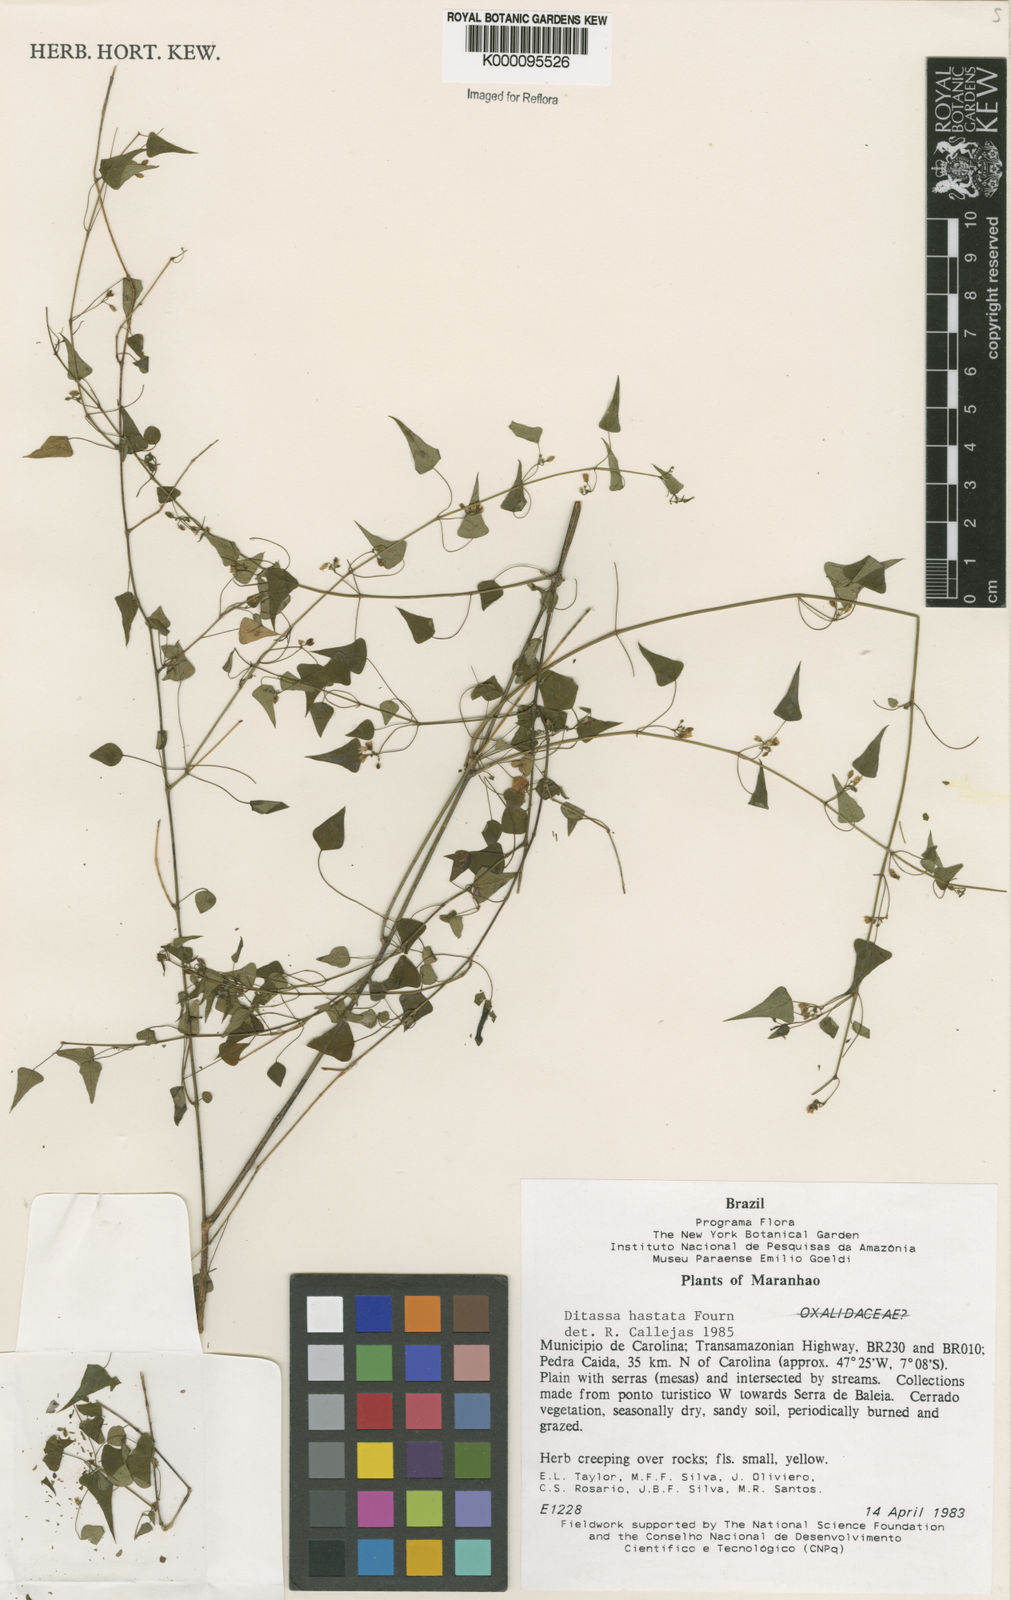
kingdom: Plantae
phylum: Tracheophyta
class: Magnoliopsida
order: Gentianales
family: Apocynaceae
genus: Ditassa
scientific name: Ditassa hastata
